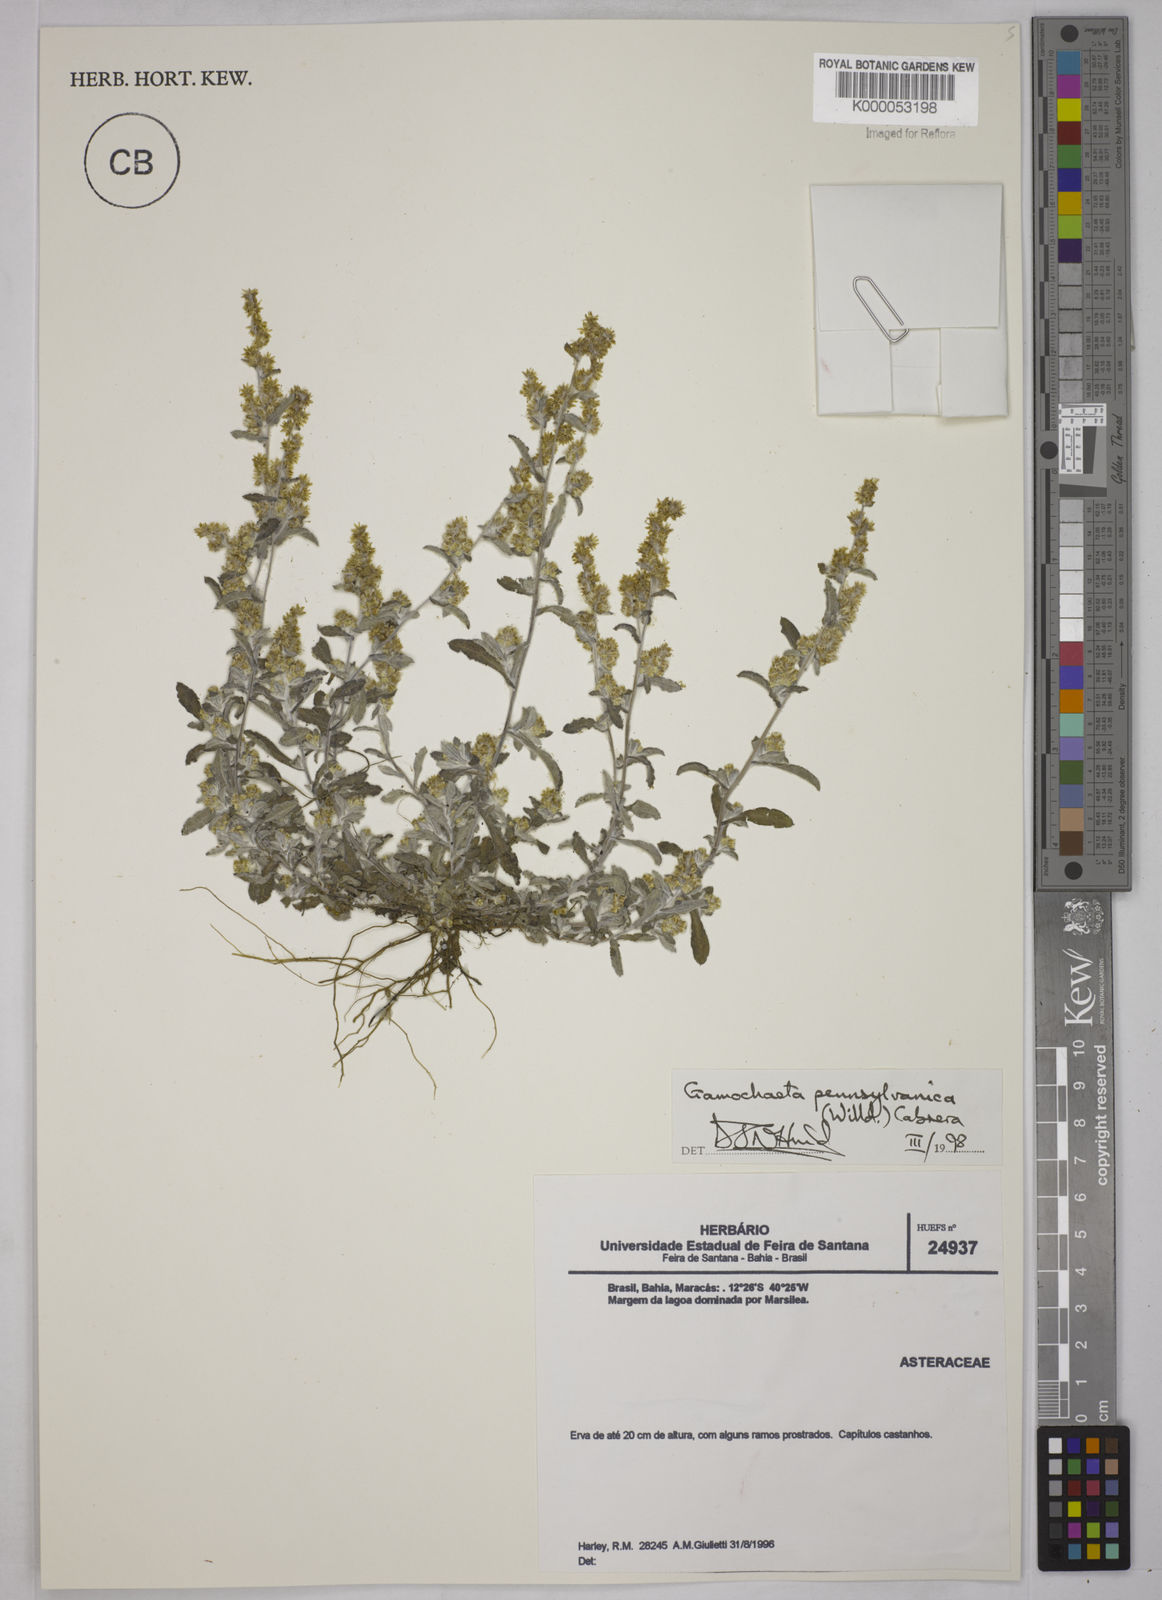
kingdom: Plantae
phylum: Tracheophyta
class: Magnoliopsida
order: Asterales
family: Asteraceae
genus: Gamochaeta
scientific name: Gamochaeta pensylvanica
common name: Pennsylvania everlasting
